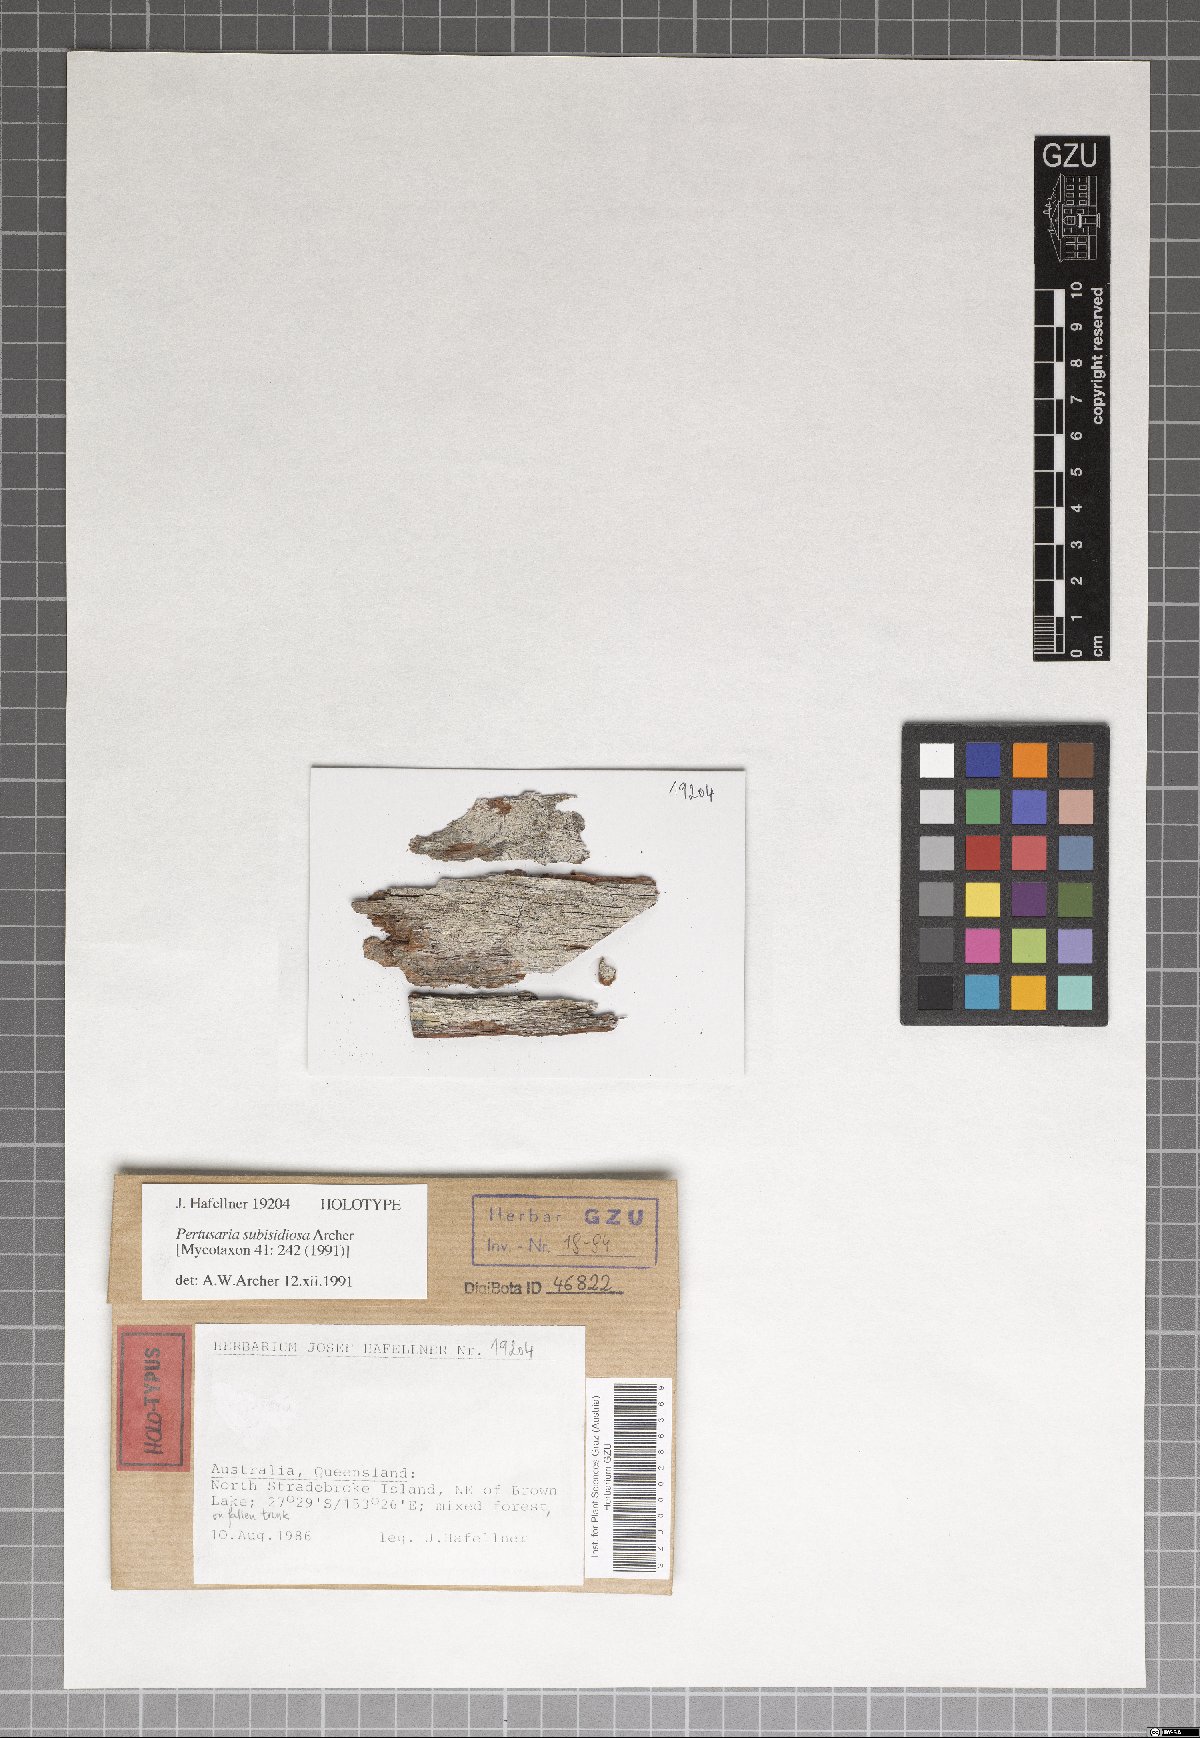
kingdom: Fungi
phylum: Ascomycota
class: Lecanoromycetes
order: Pertusariales
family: Pertusariaceae
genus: Pertusaria
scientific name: Pertusaria subisidiosa
